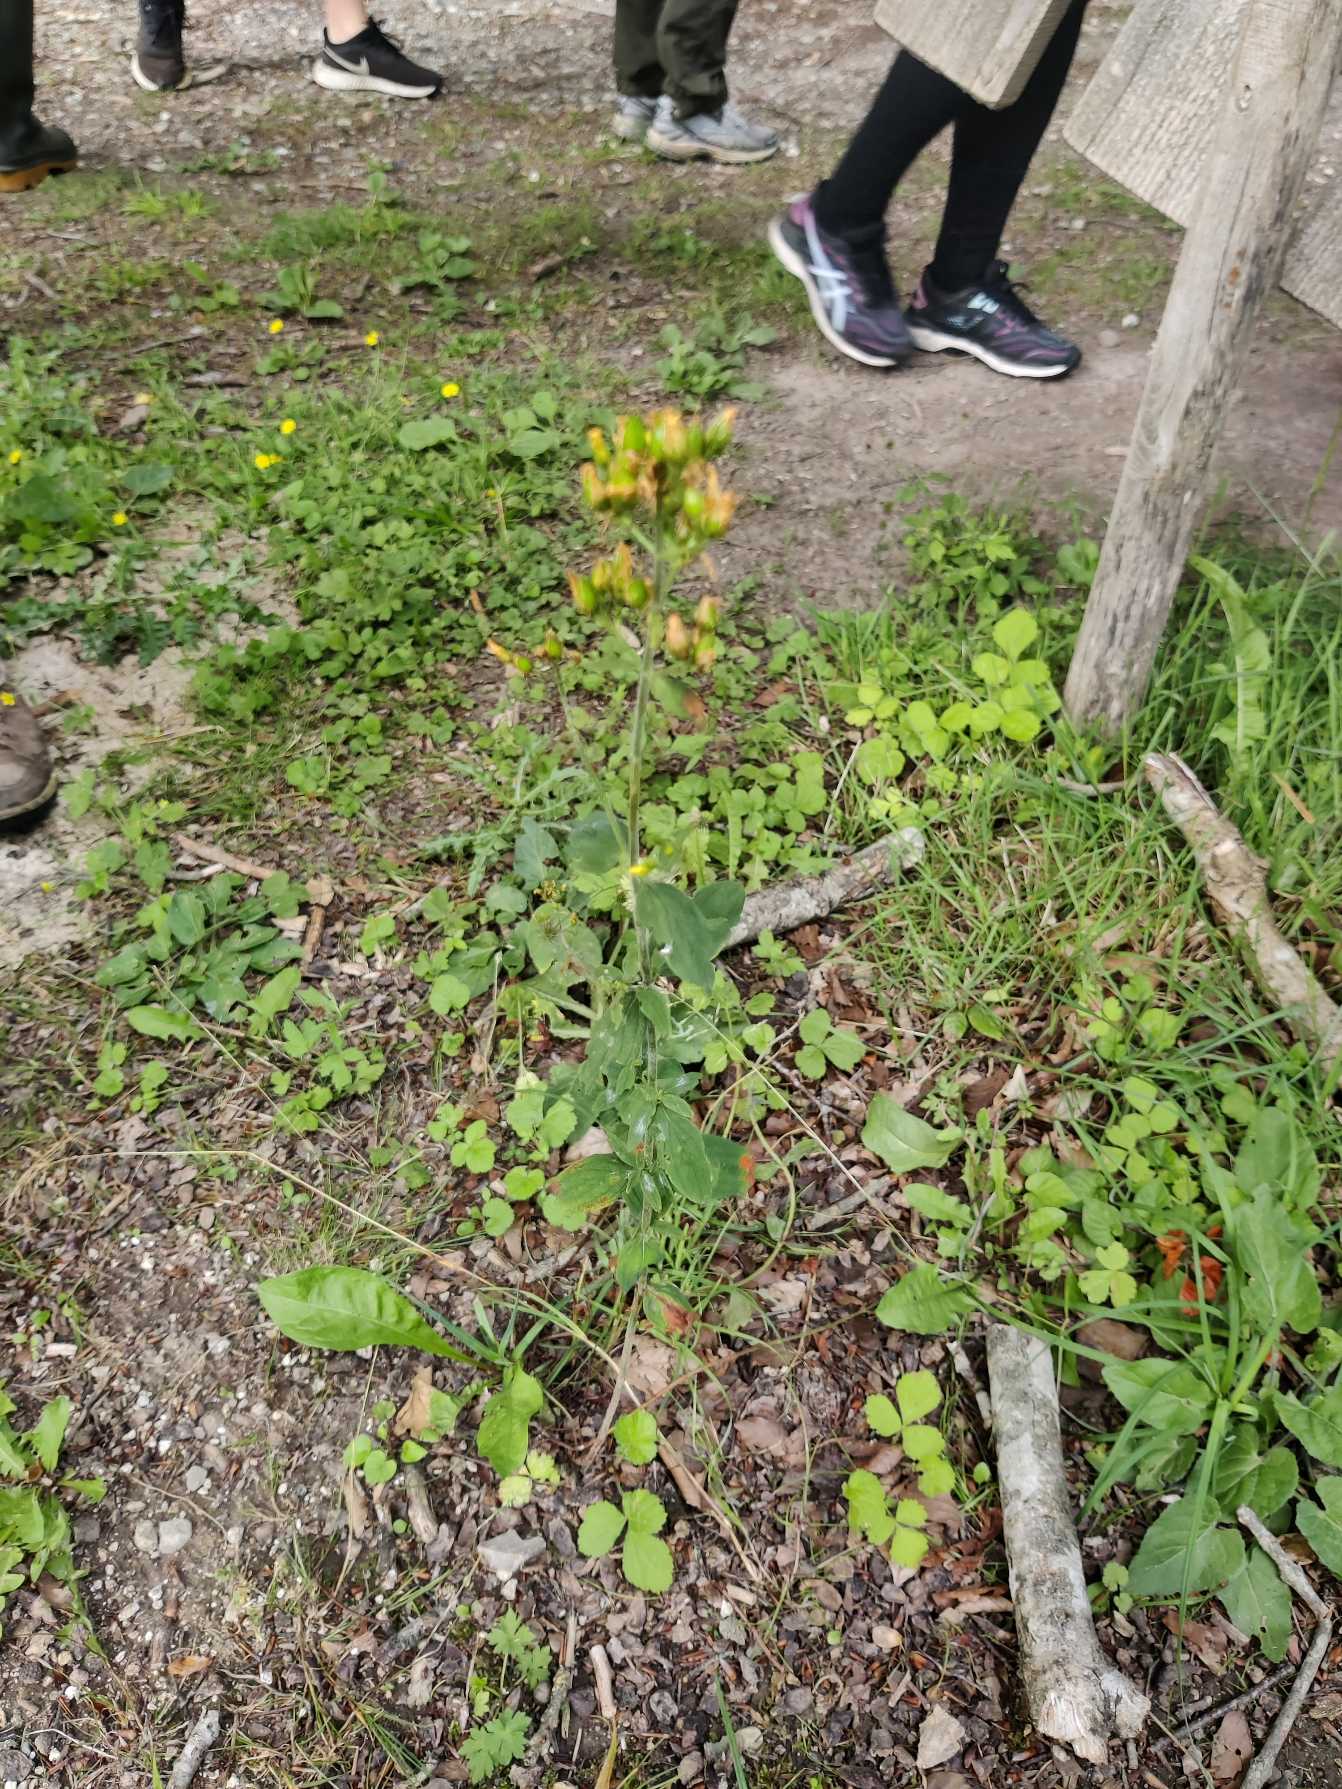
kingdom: Plantae
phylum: Tracheophyta
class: Magnoliopsida
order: Malpighiales
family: Hypericaceae
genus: Hypericum
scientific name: Hypericum hirsutum
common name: Lådden perikon
